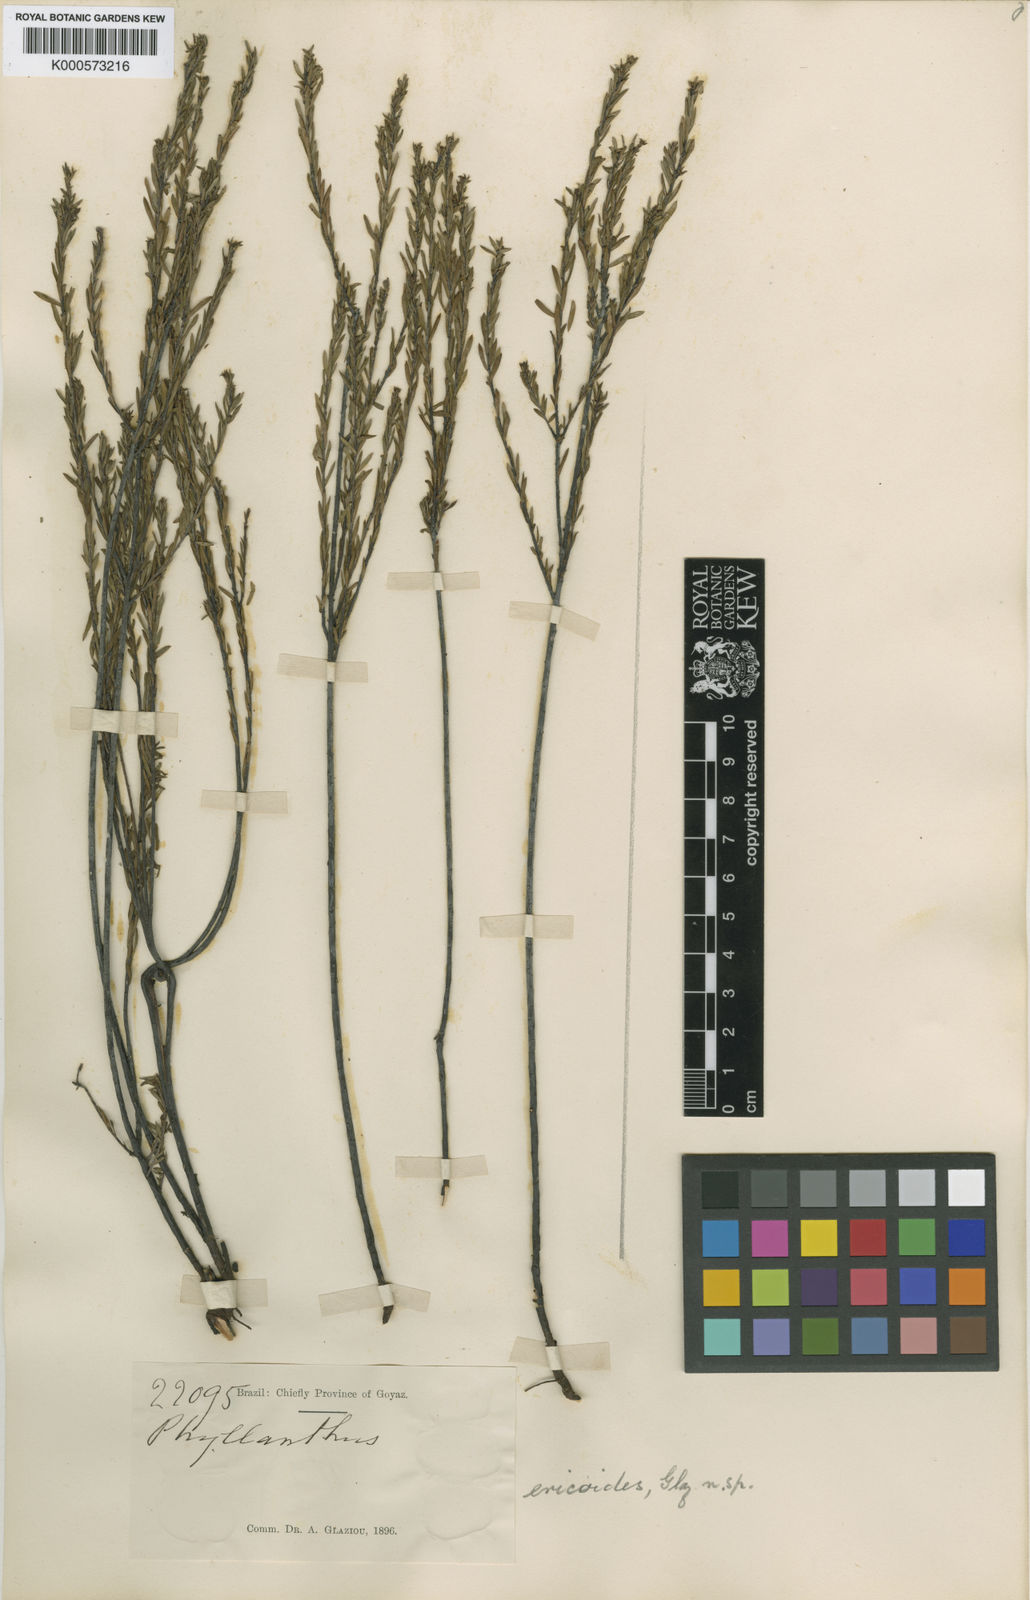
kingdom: Plantae
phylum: Tracheophyta
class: Magnoliopsida
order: Malpighiales
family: Phyllanthaceae
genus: Phyllanthus
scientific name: Phyllanthus dawsonii
